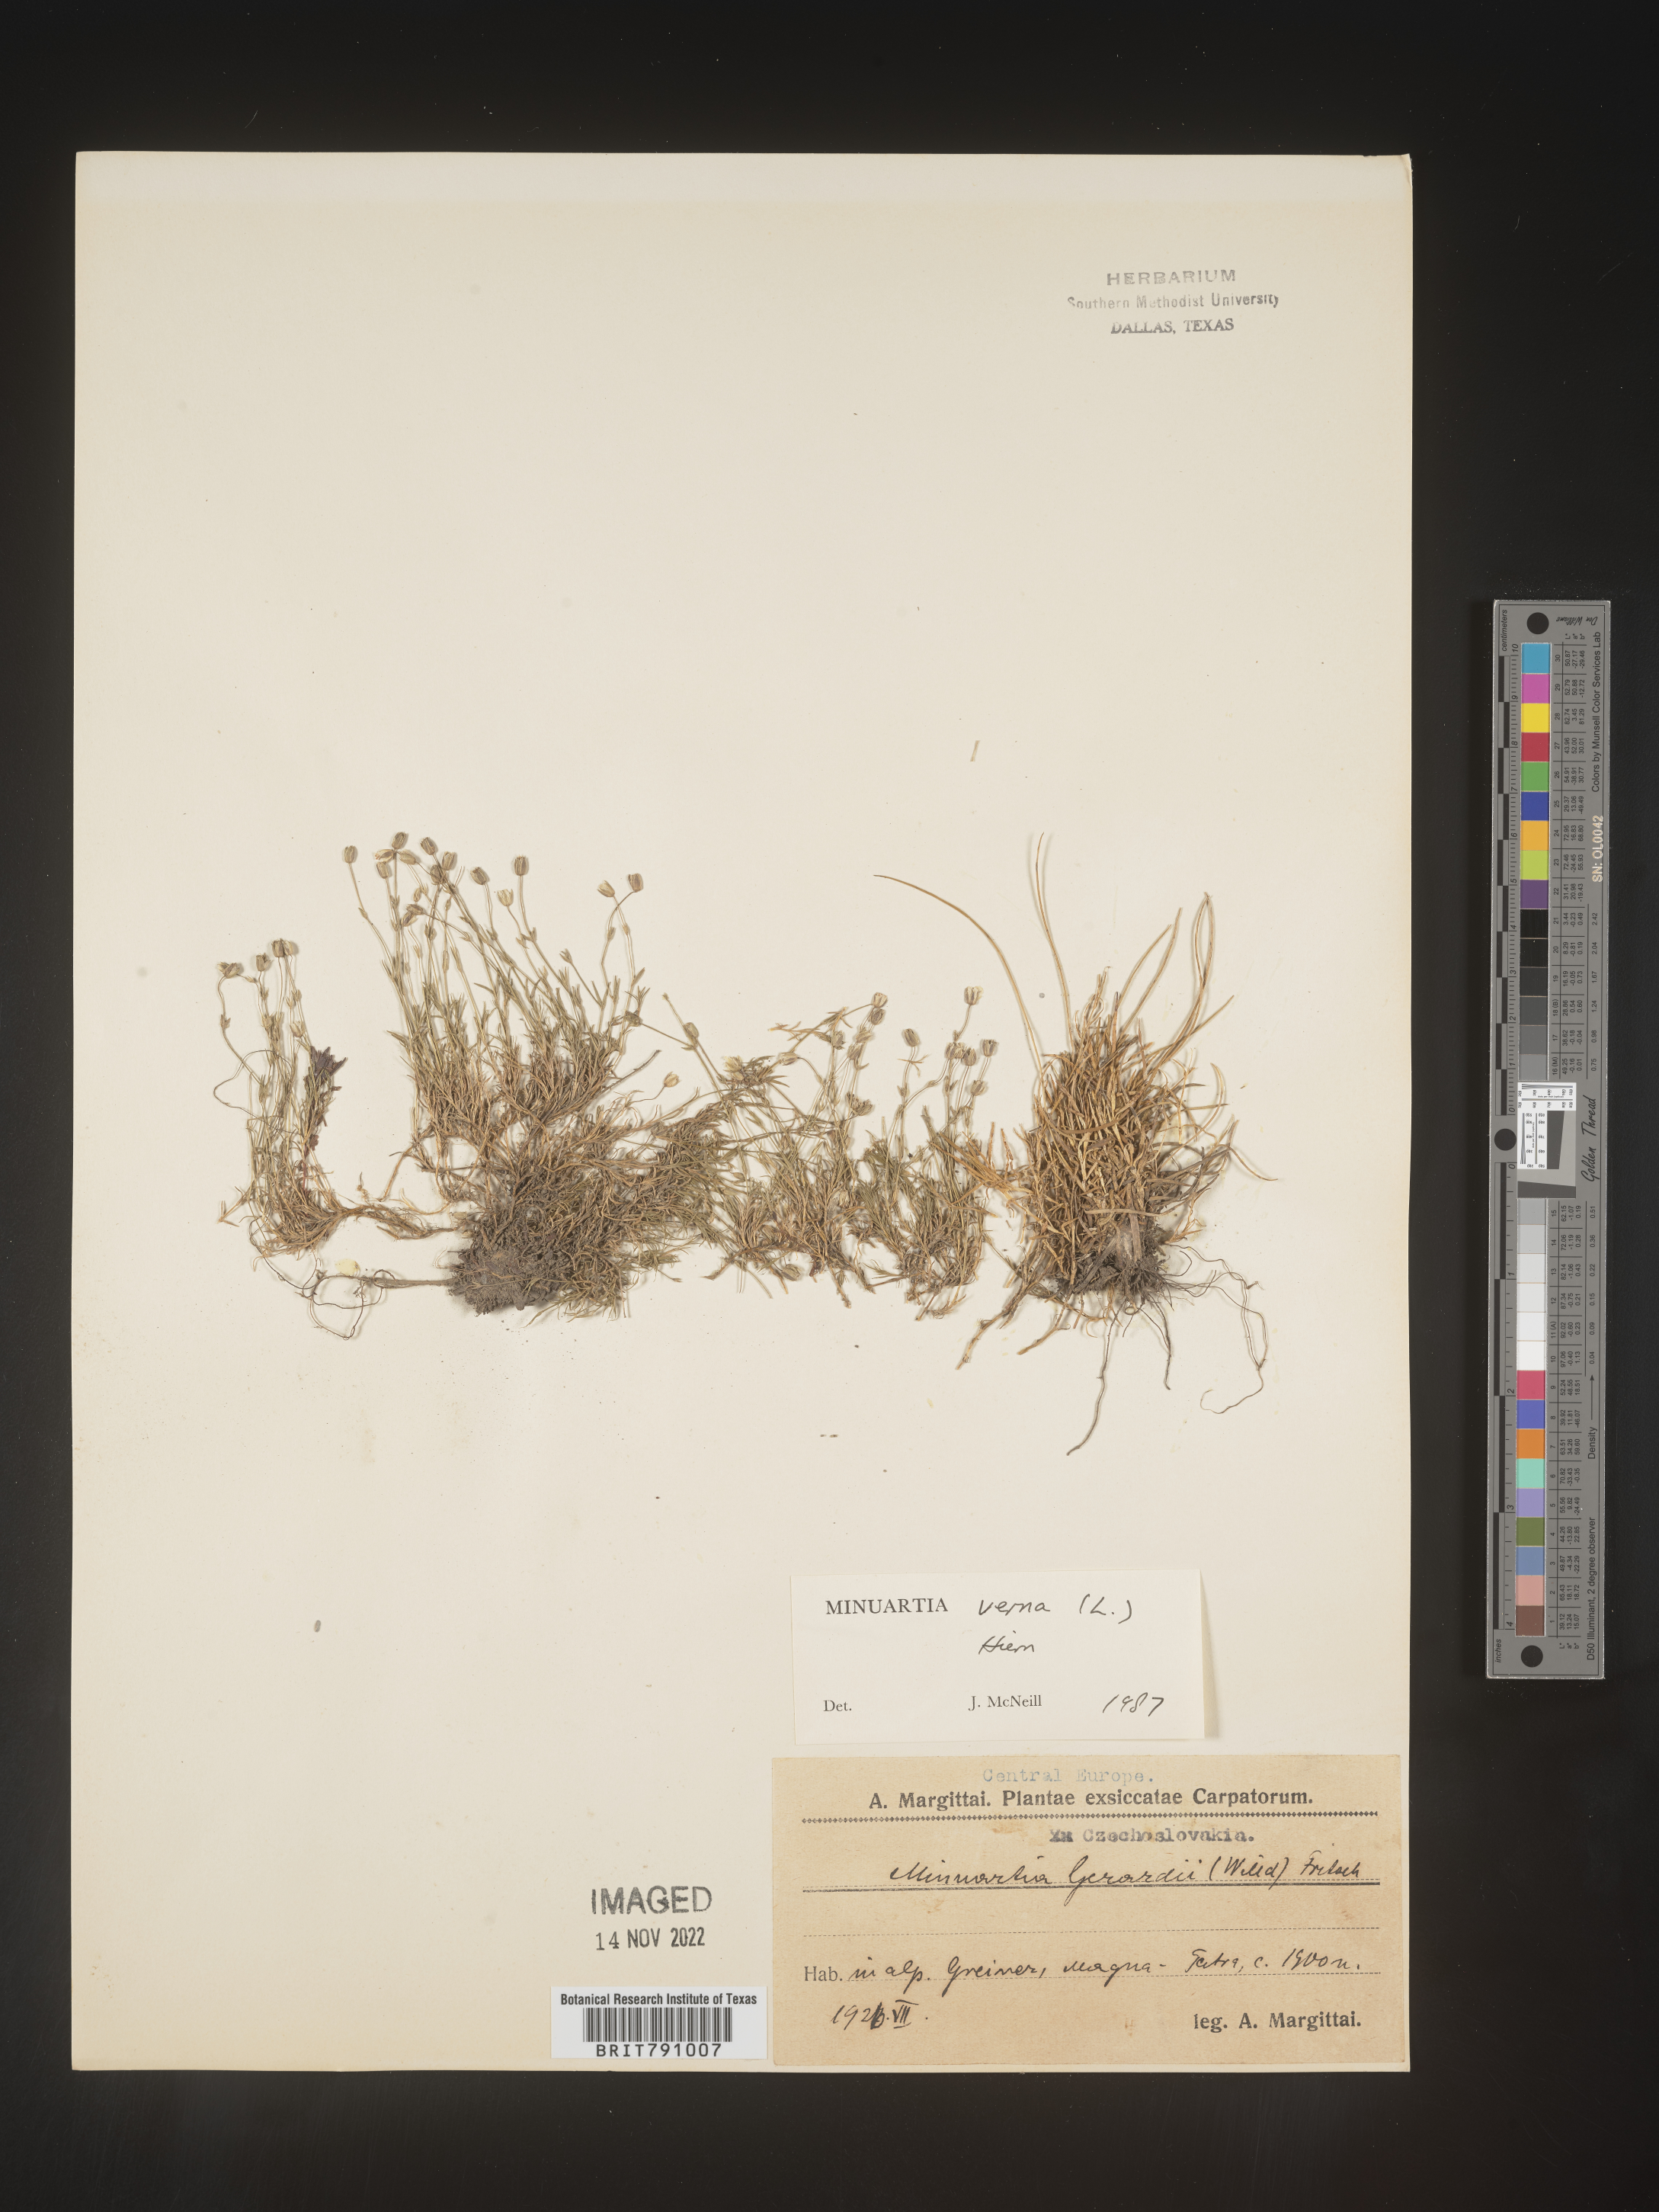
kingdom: Plantae
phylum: Tracheophyta
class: Magnoliopsida
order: Caryophyllales
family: Caryophyllaceae
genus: Minuartia
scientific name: Minuartia
